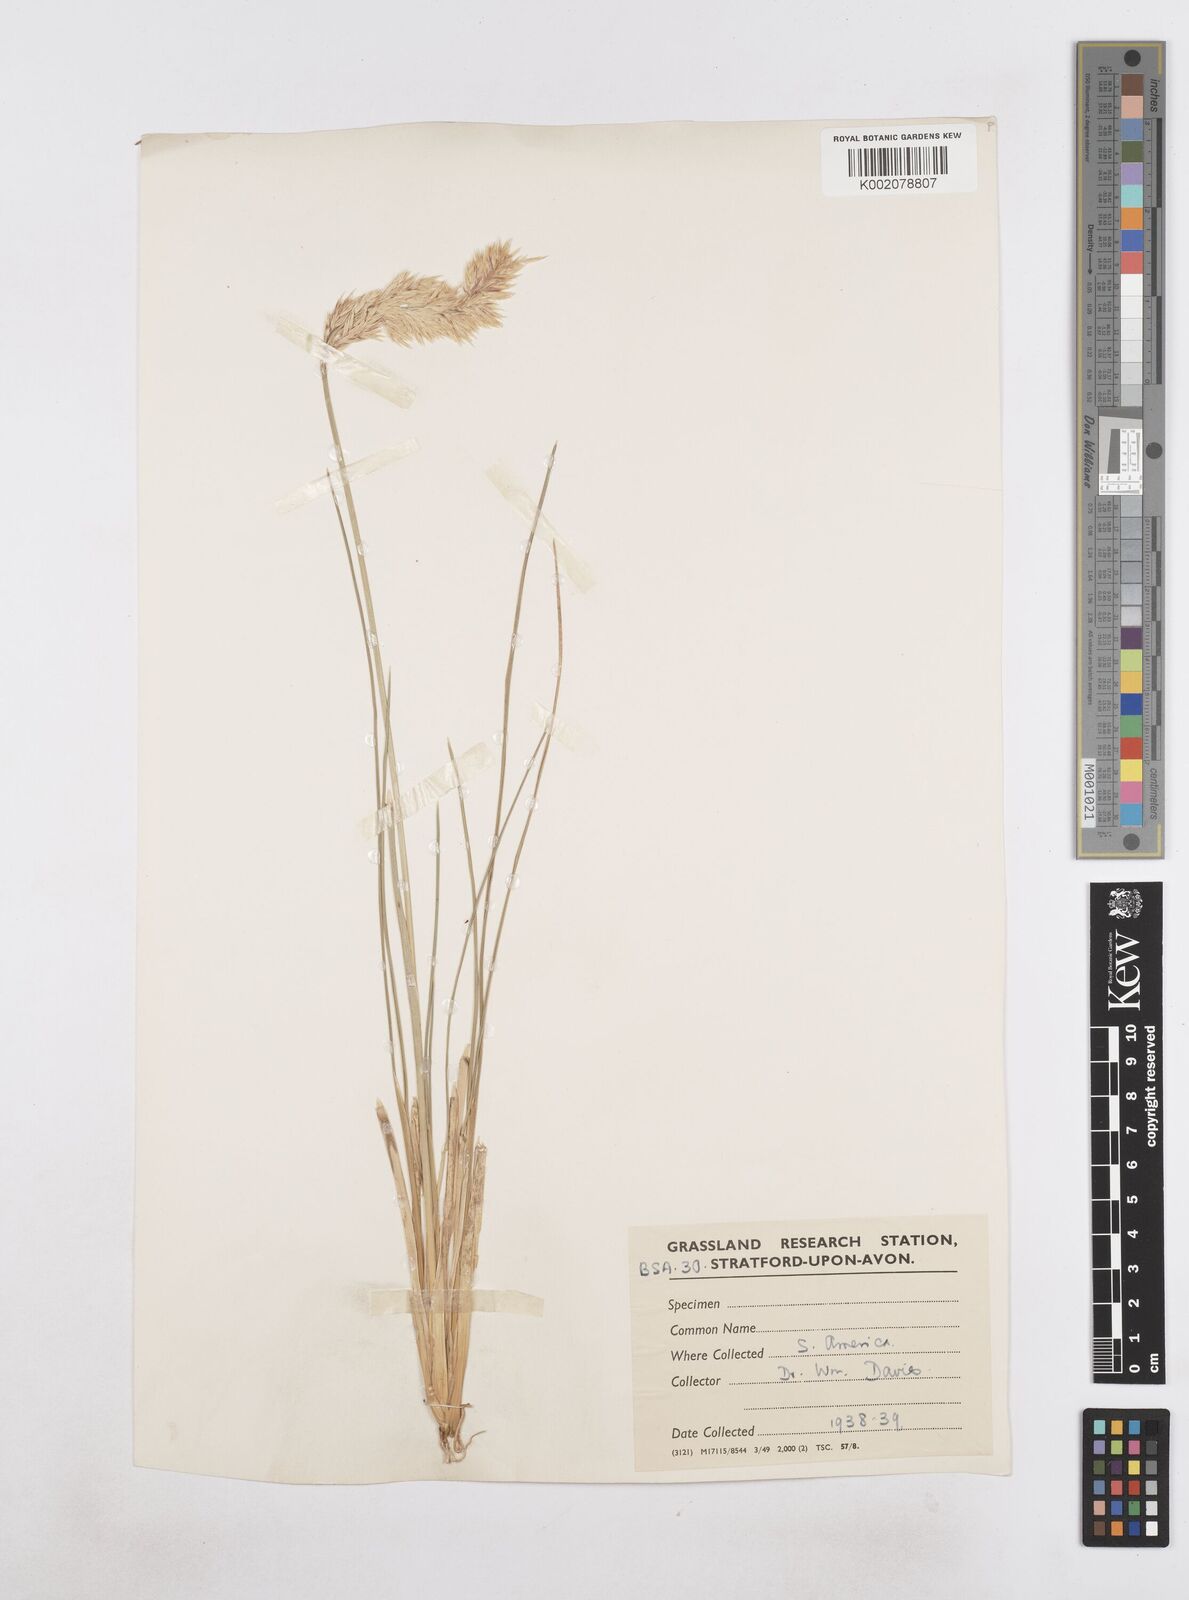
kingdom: Plantae
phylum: Tracheophyta
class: Liliopsida
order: Poales
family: Poaceae
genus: Poa
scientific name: Poa
